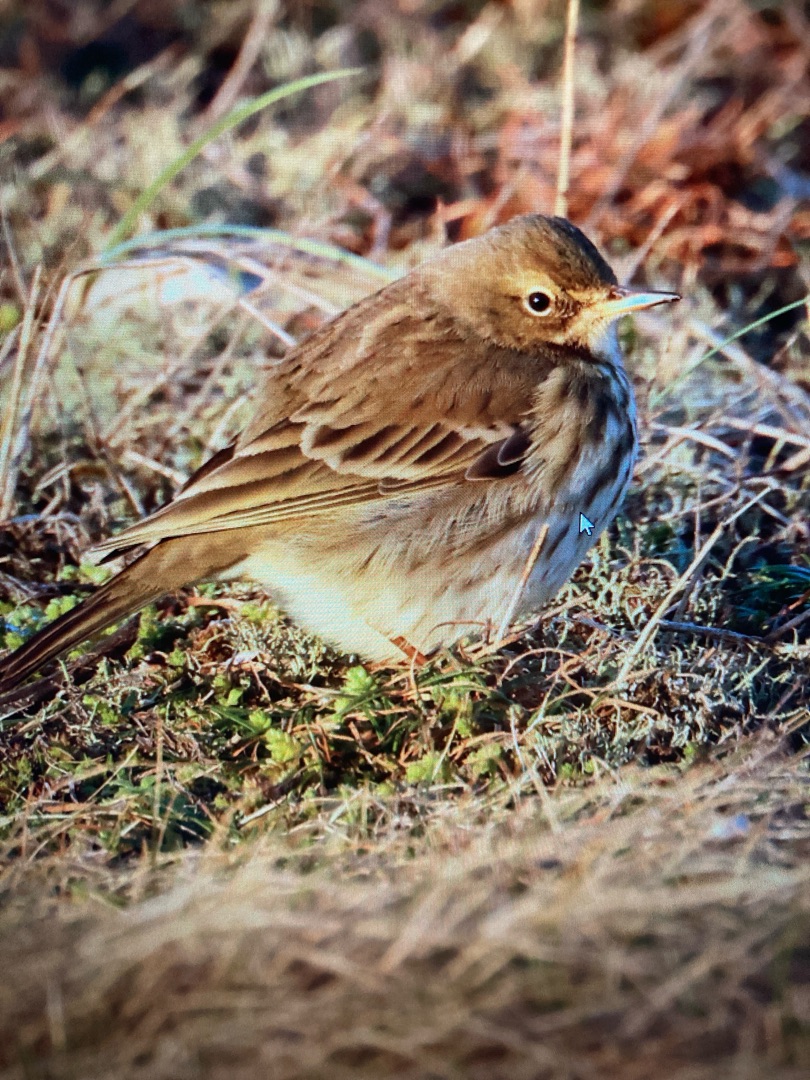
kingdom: Animalia
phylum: Chordata
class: Aves
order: Passeriformes
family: Motacillidae
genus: Anthus
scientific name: Anthus pratensis
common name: Engpiber
